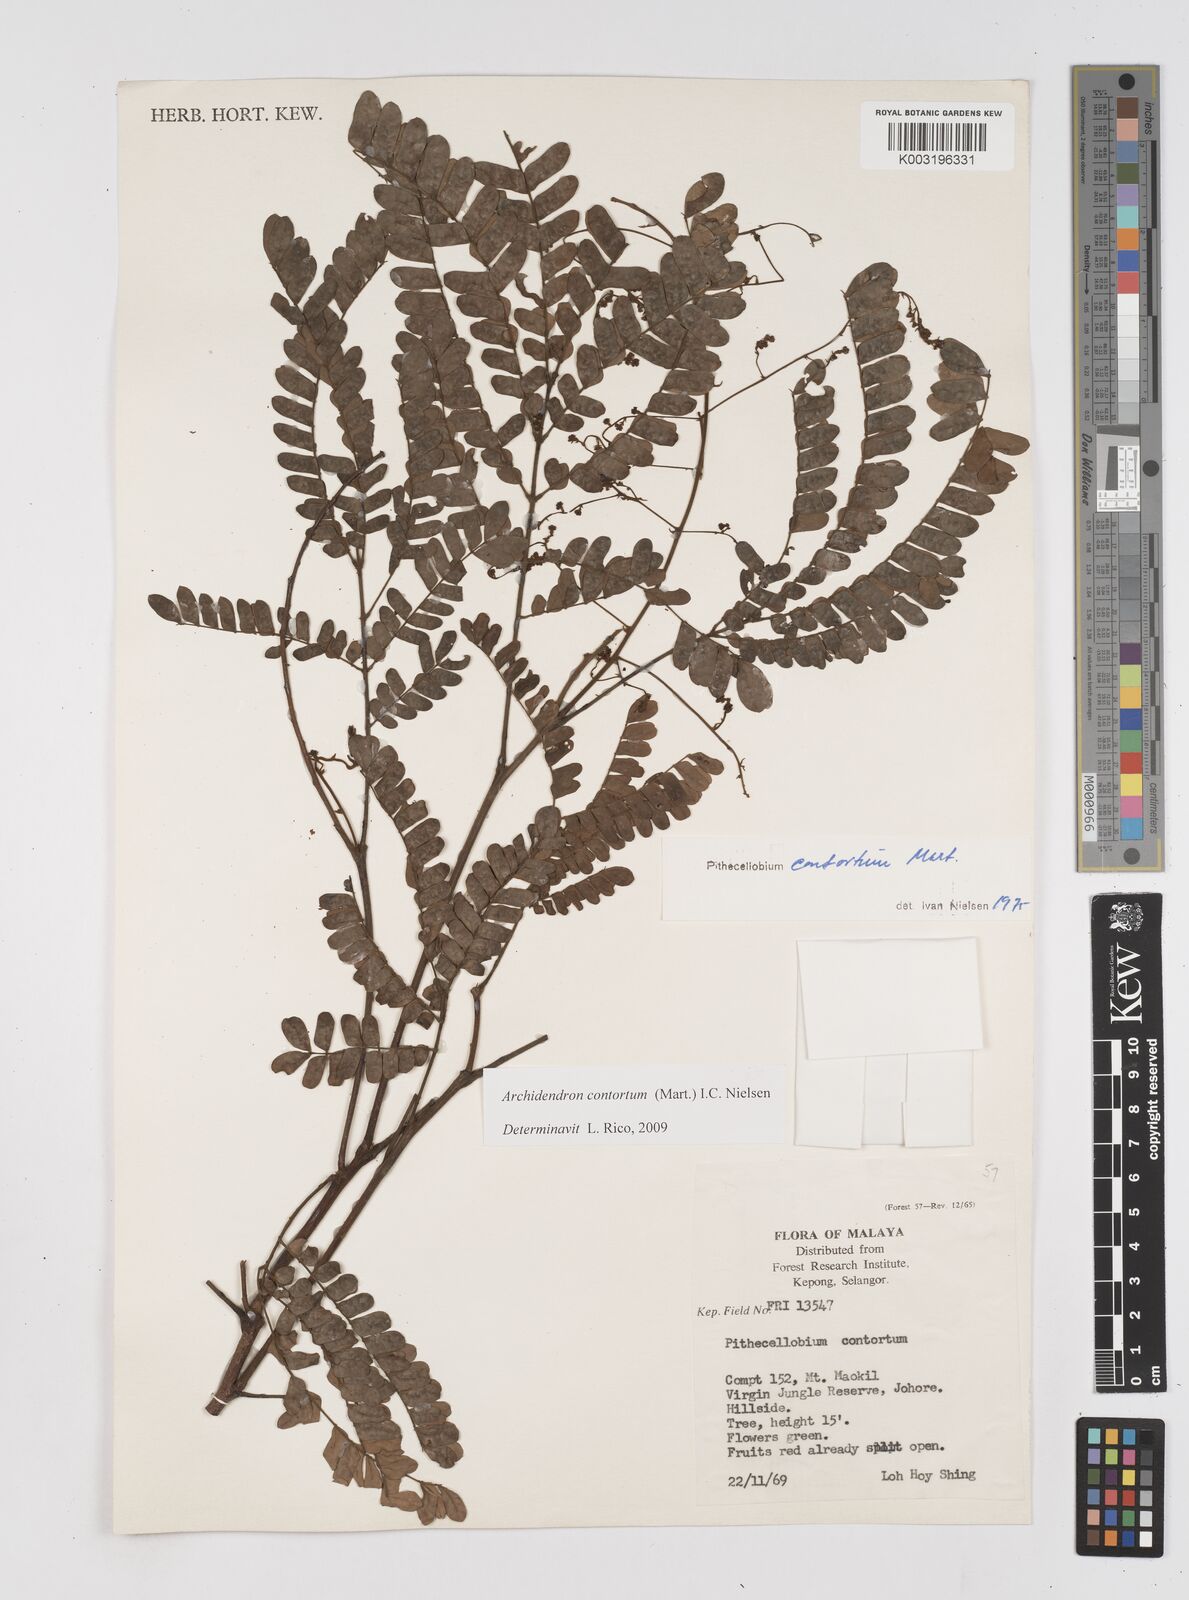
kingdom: Plantae
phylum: Tracheophyta
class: Magnoliopsida
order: Fabales
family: Fabaceae
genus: Archidendron
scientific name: Archidendron contortum
